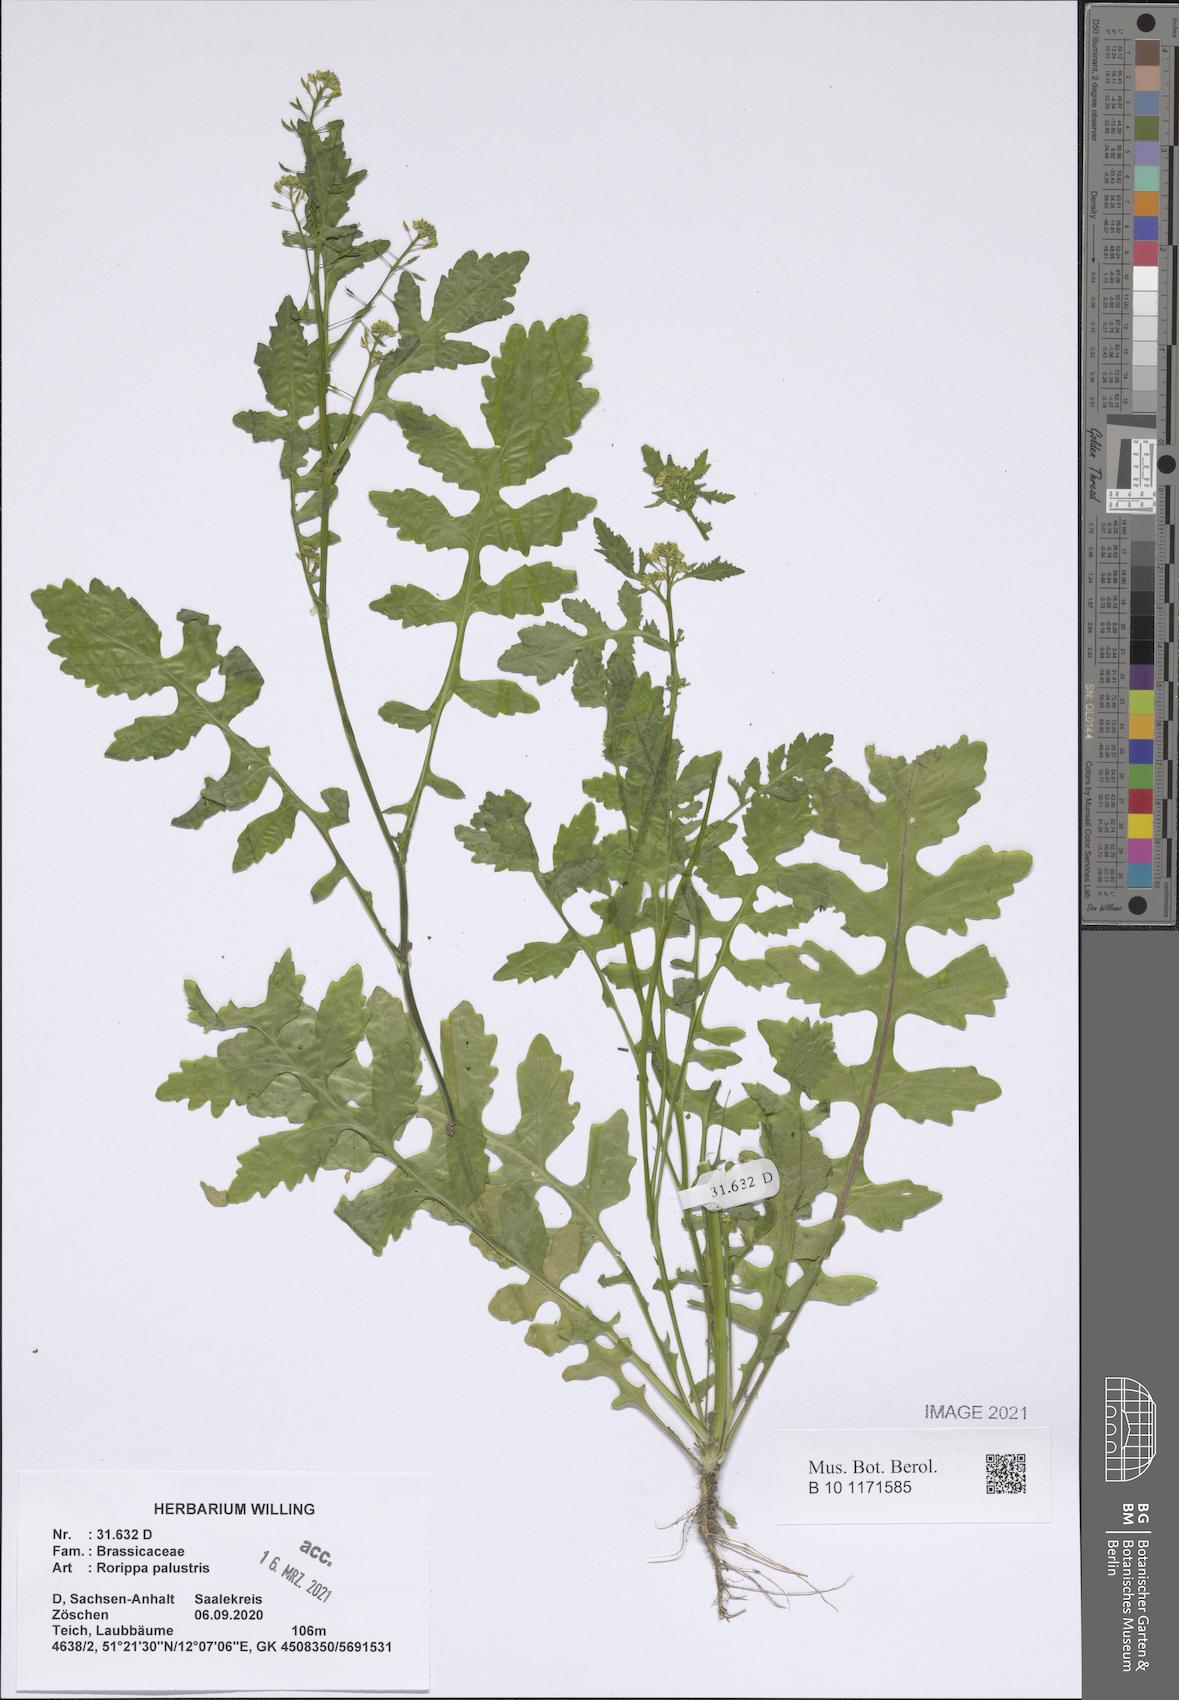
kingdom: Plantae
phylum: Tracheophyta
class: Magnoliopsida
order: Brassicales
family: Brassicaceae
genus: Rorippa
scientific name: Rorippa palustris
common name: Marsh yellow-cress
